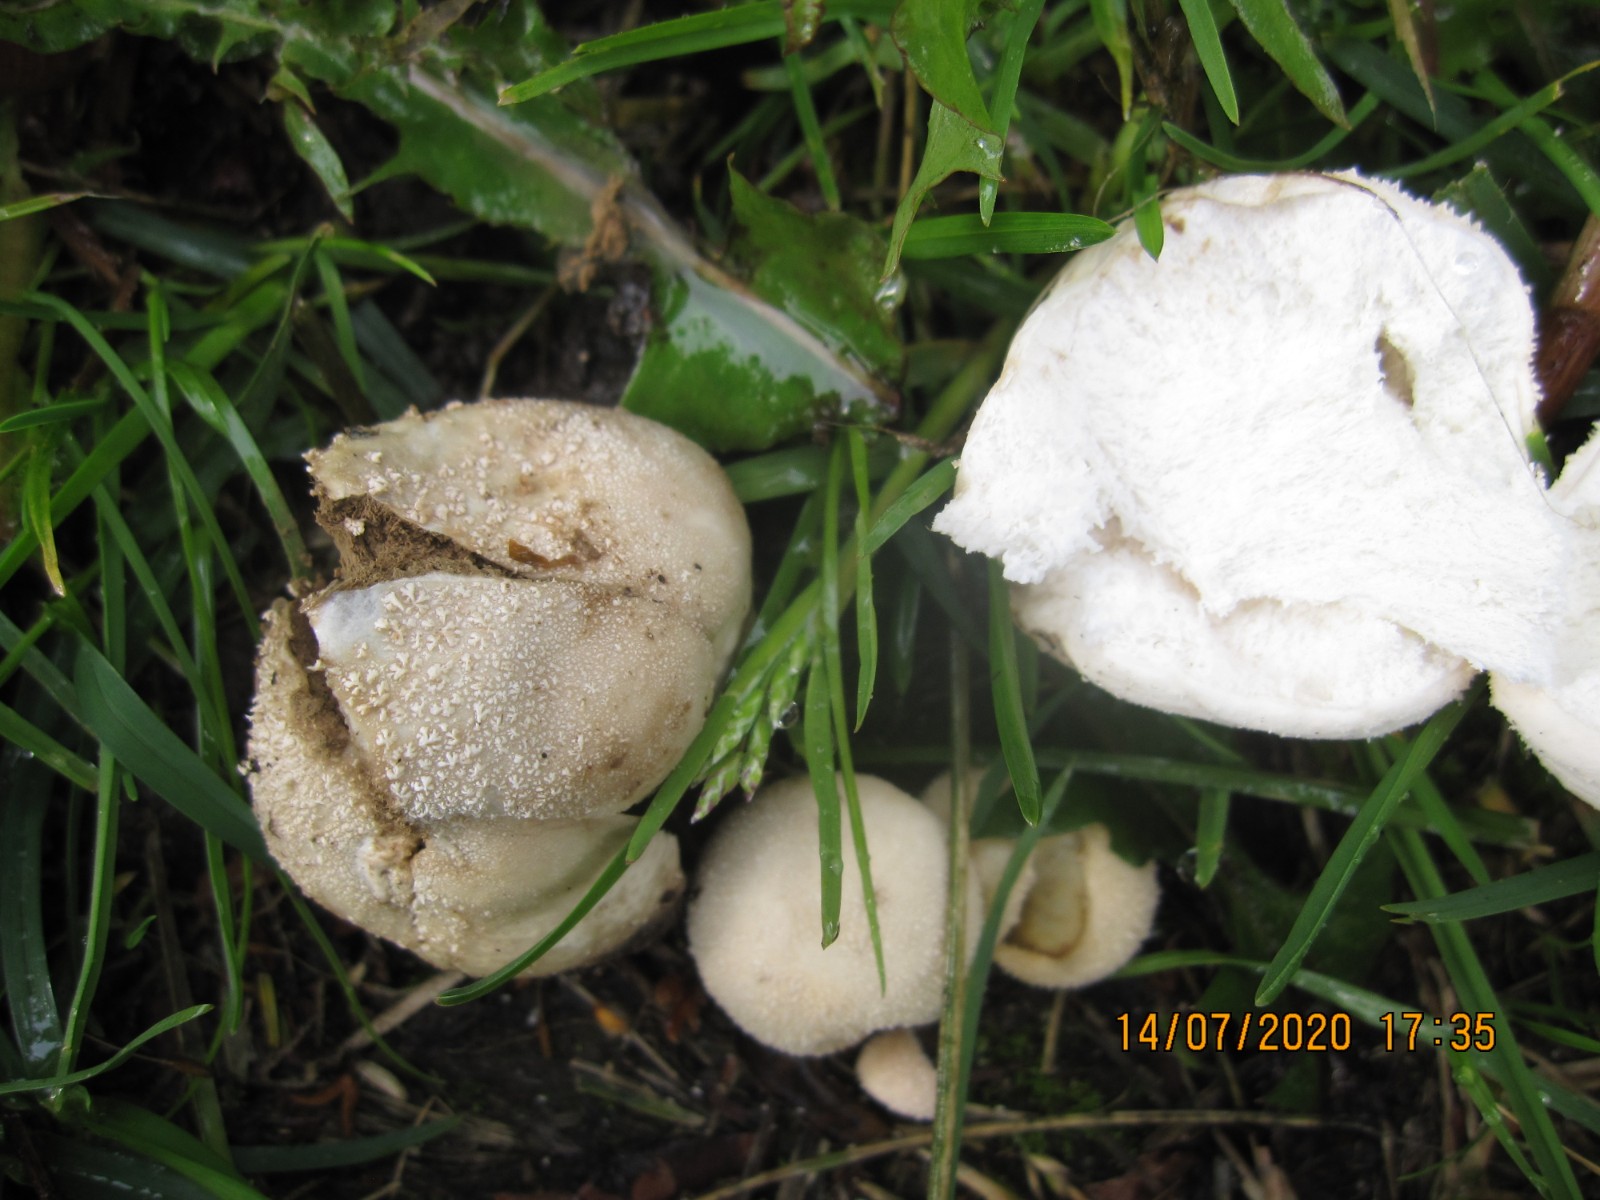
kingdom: Fungi
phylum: Basidiomycota
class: Agaricomycetes
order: Agaricales
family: Lycoperdaceae
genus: Lycoperdon
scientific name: Lycoperdon pratense
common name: flad støvbold
